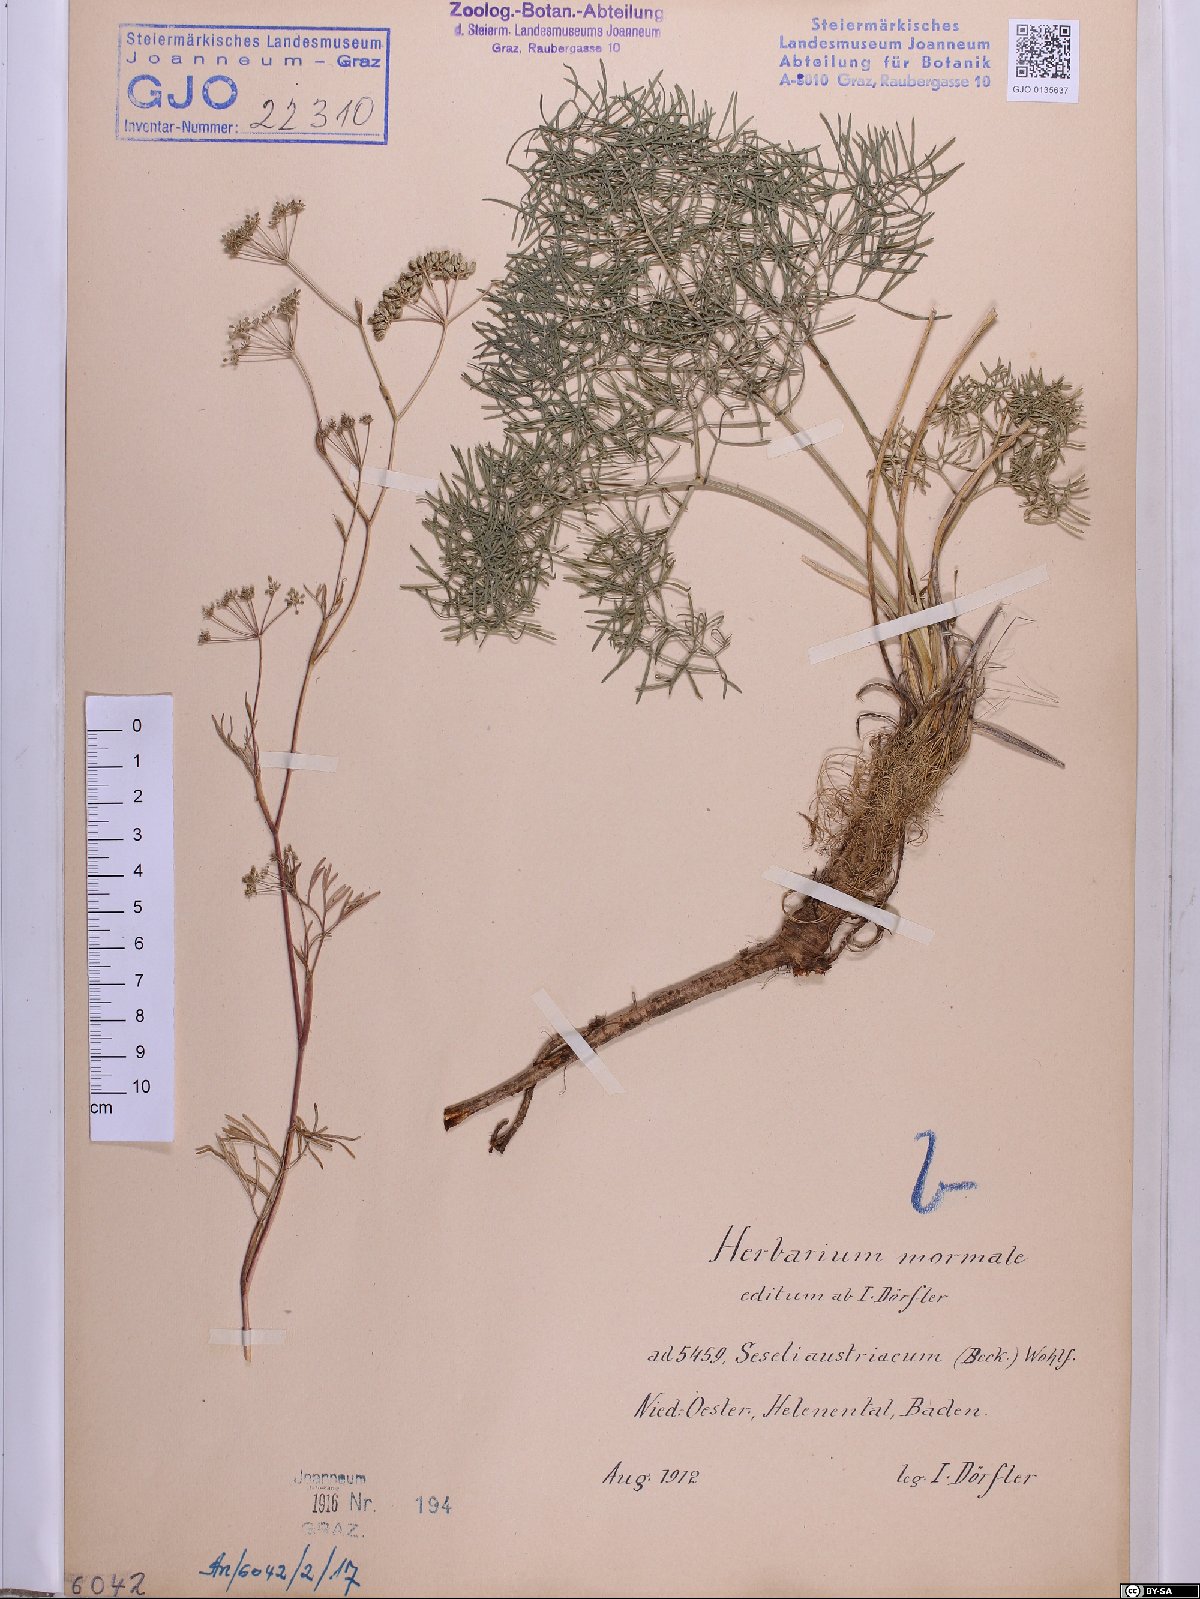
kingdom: Plantae
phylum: Tracheophyta
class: Magnoliopsida
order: Apiales
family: Apiaceae
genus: Seseli
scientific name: Seseli austriacum
